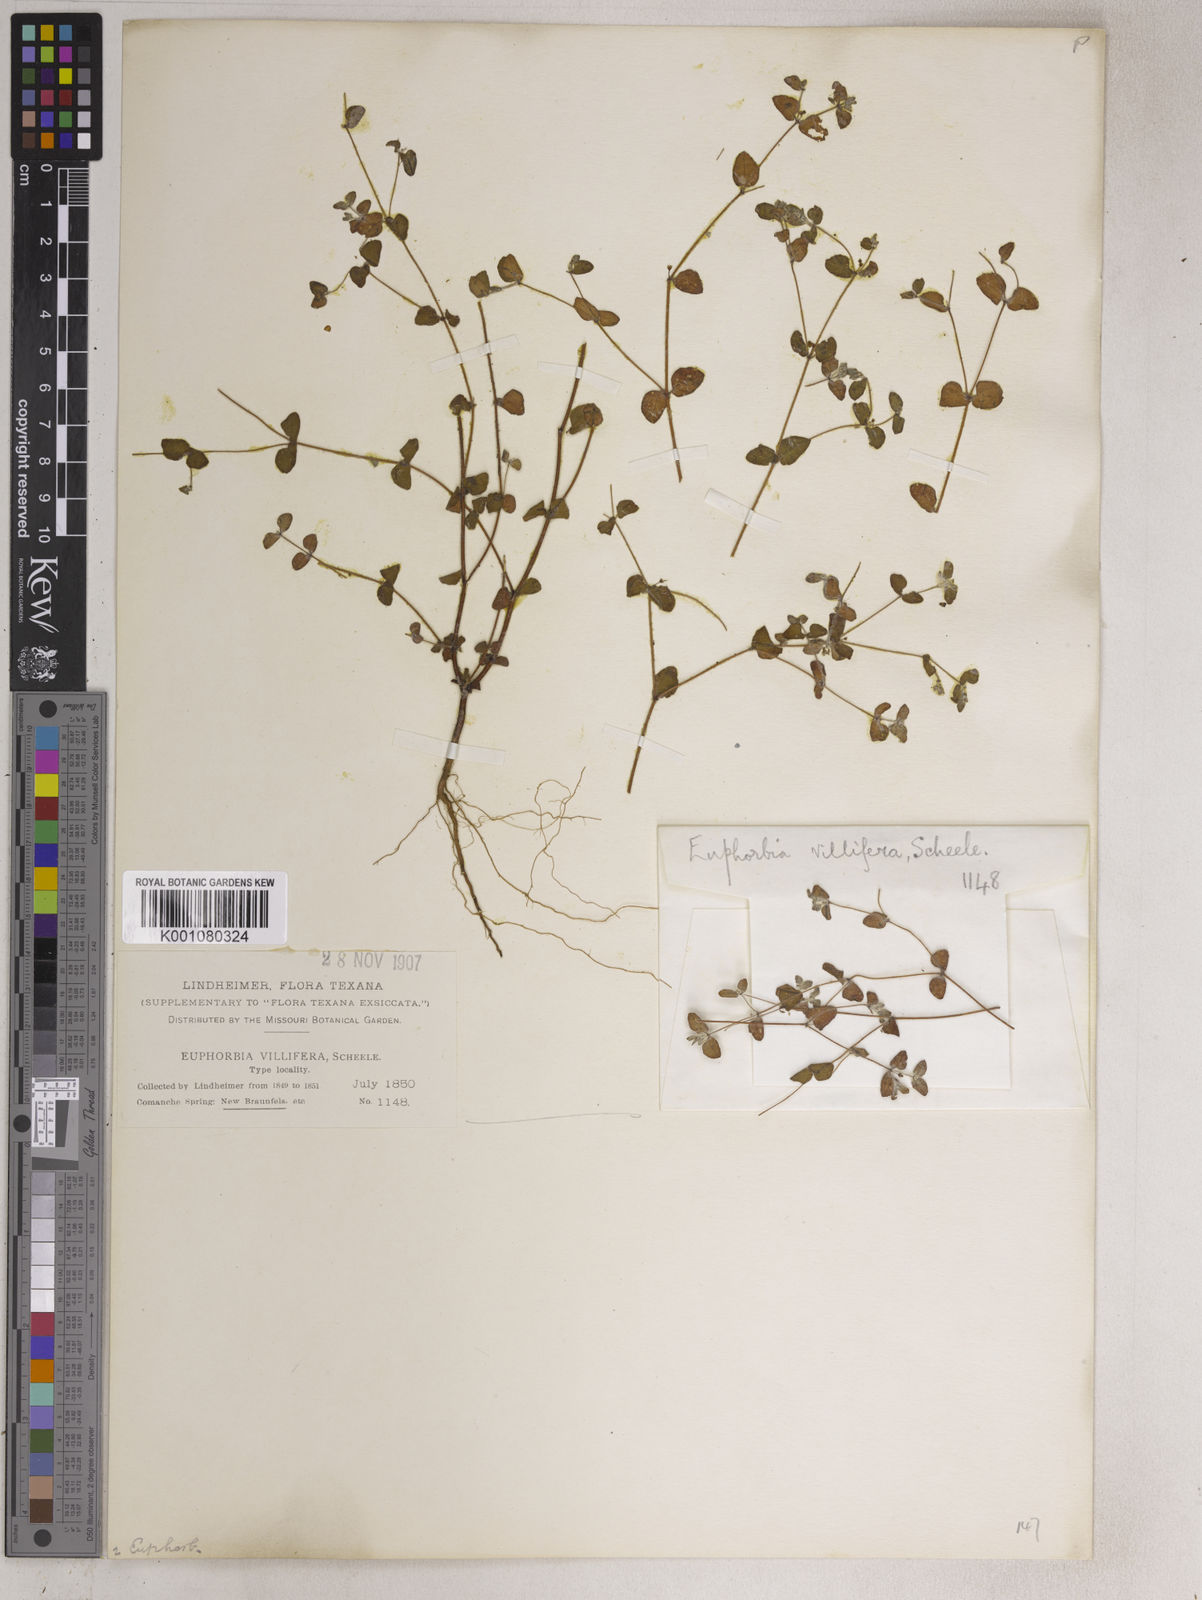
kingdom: Plantae
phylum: Tracheophyta
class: Magnoliopsida
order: Malpighiales
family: Euphorbiaceae
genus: Euphorbia
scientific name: Euphorbia villifera
